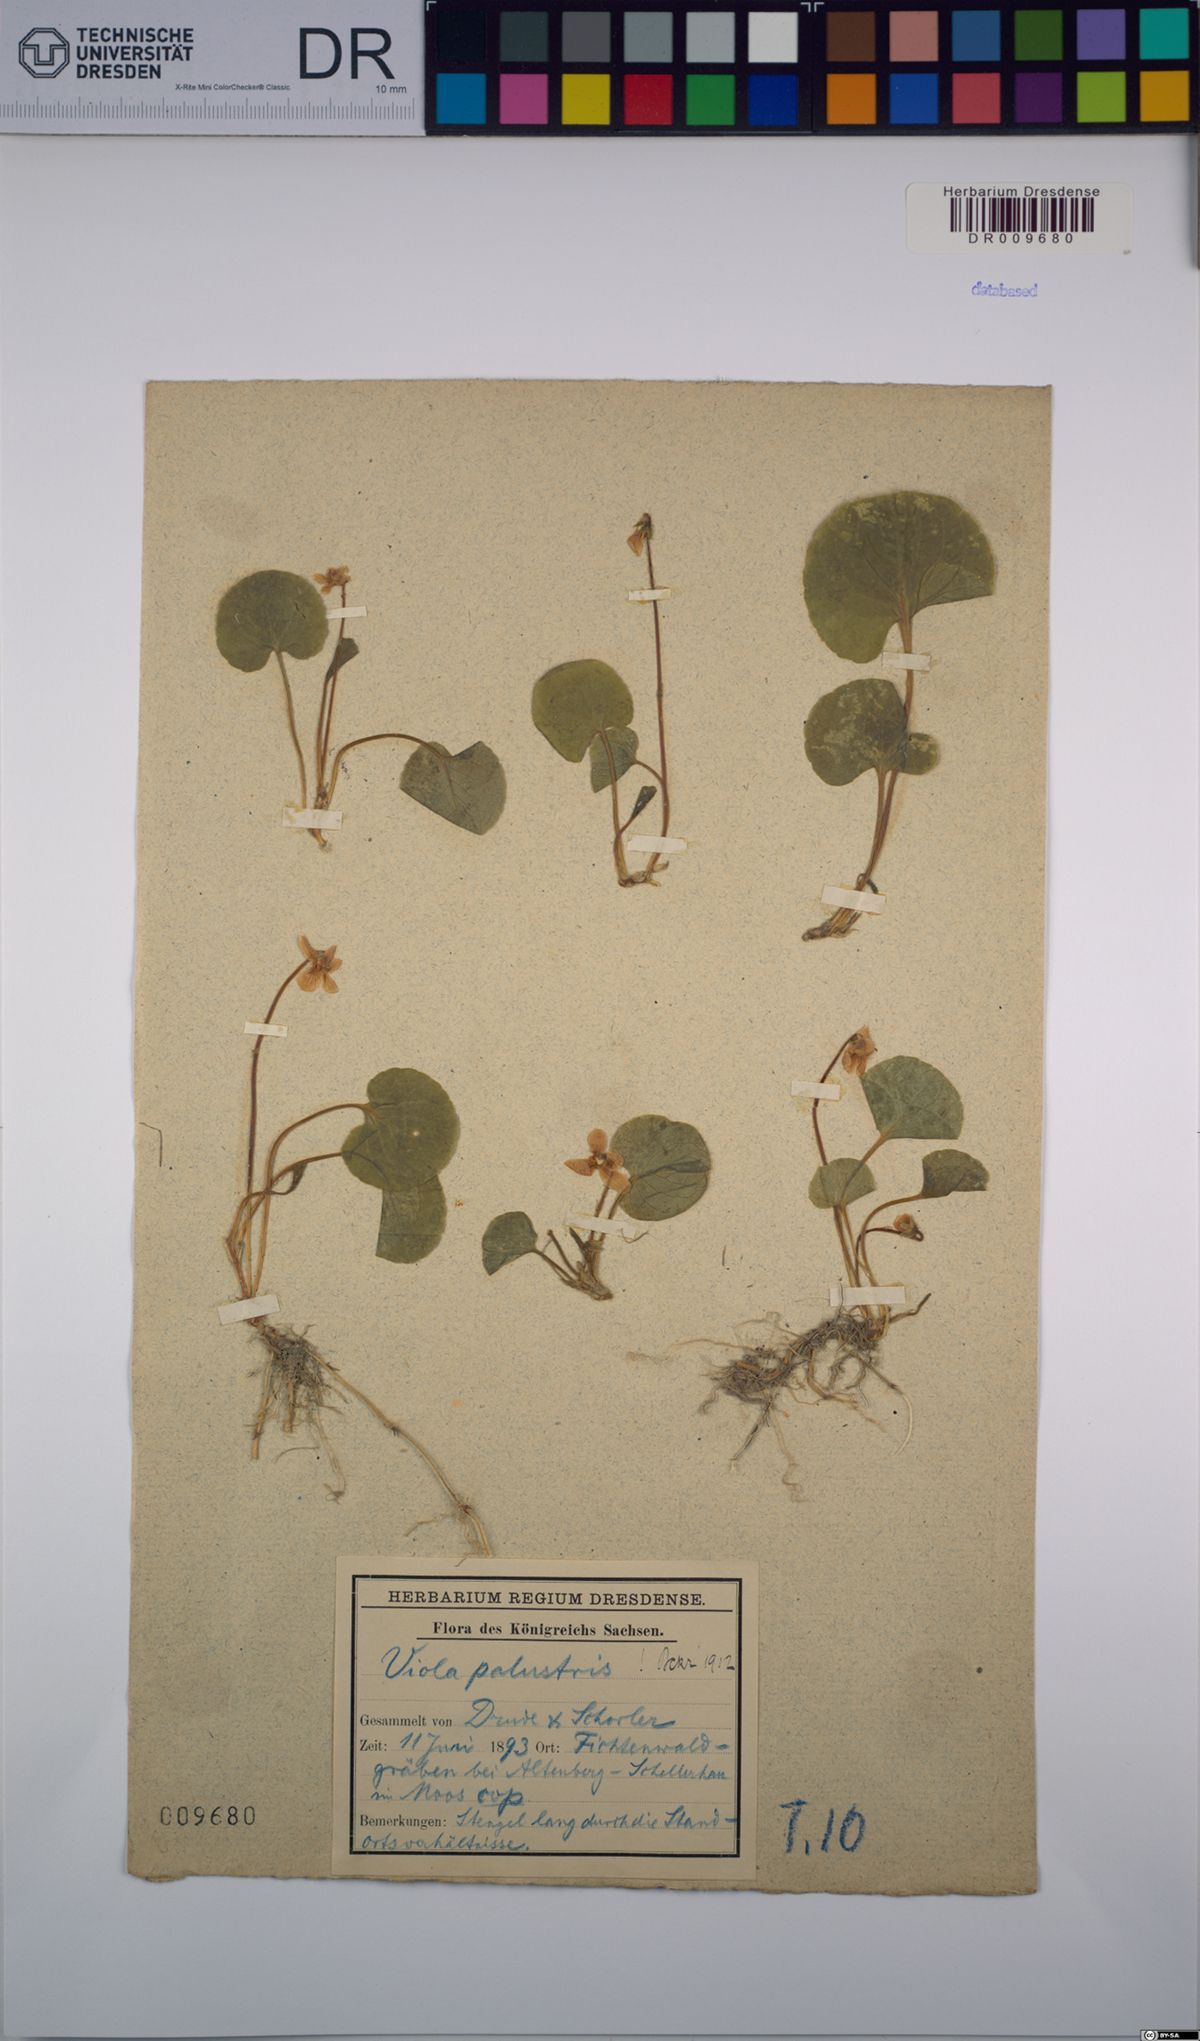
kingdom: Plantae
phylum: Tracheophyta
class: Magnoliopsida
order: Malpighiales
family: Violaceae
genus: Viola
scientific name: Viola palustris
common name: Marsh violet
